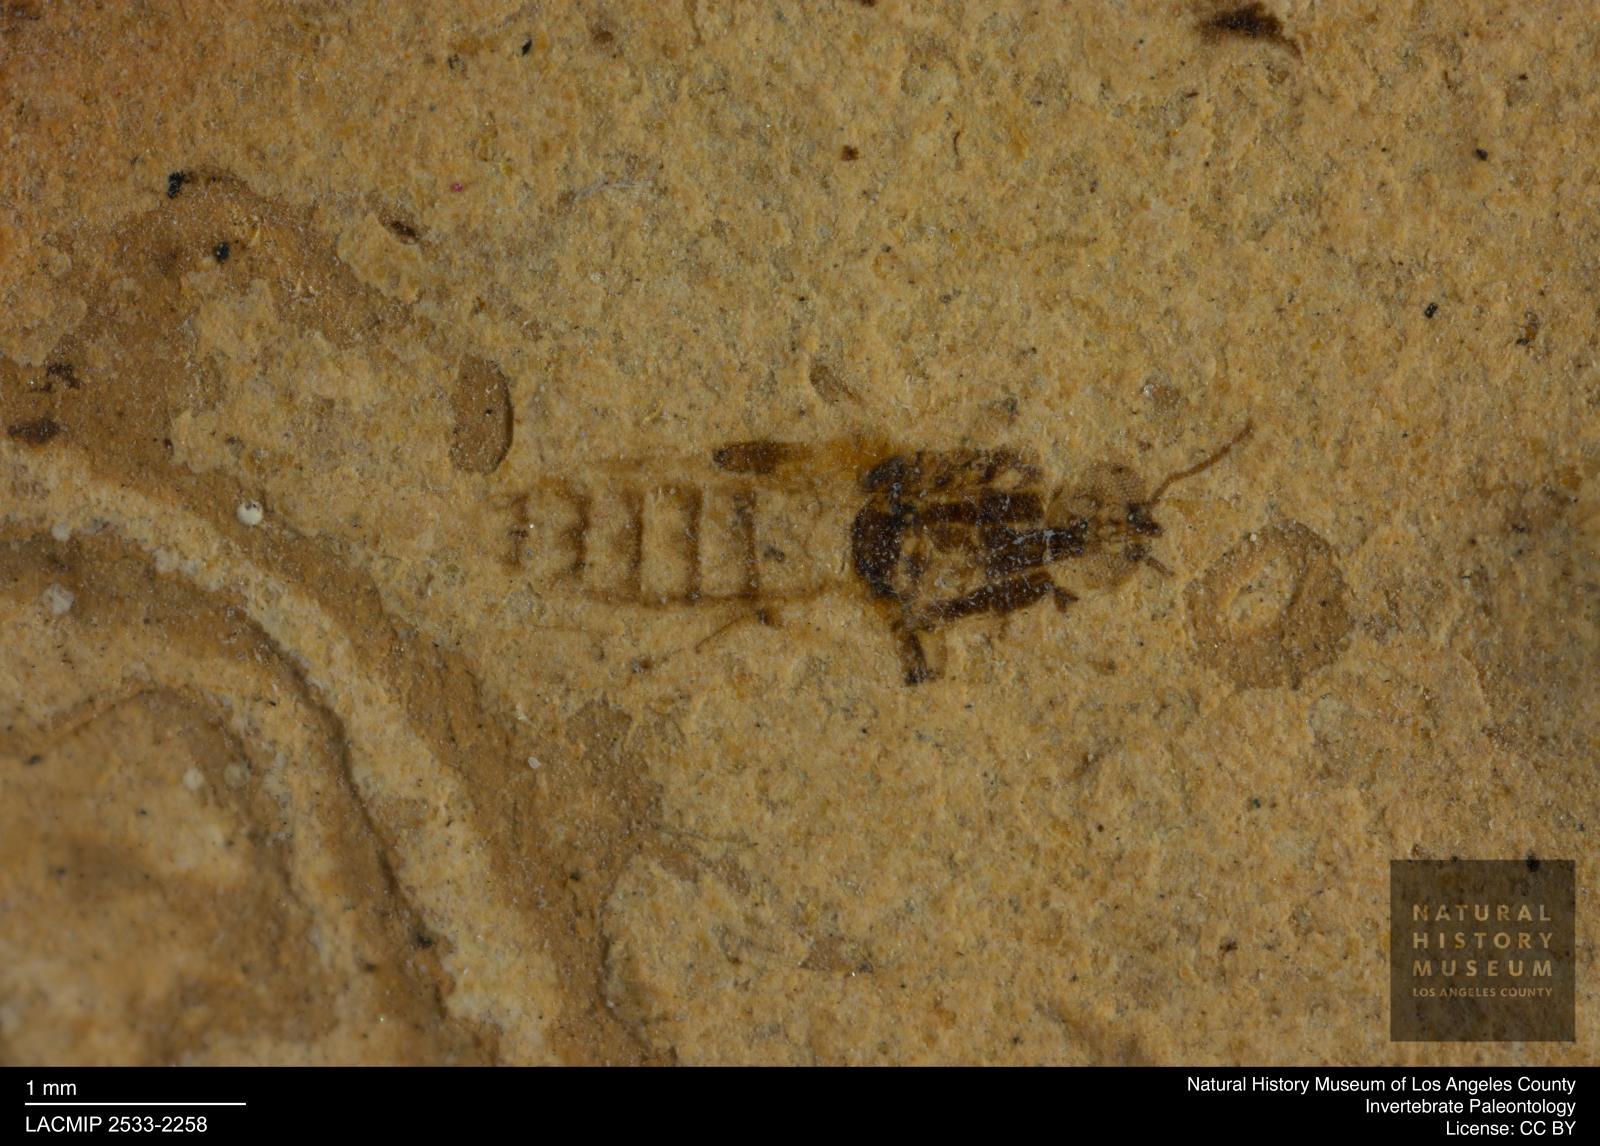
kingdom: Animalia
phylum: Arthropoda
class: Insecta
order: Diptera
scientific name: Diptera
